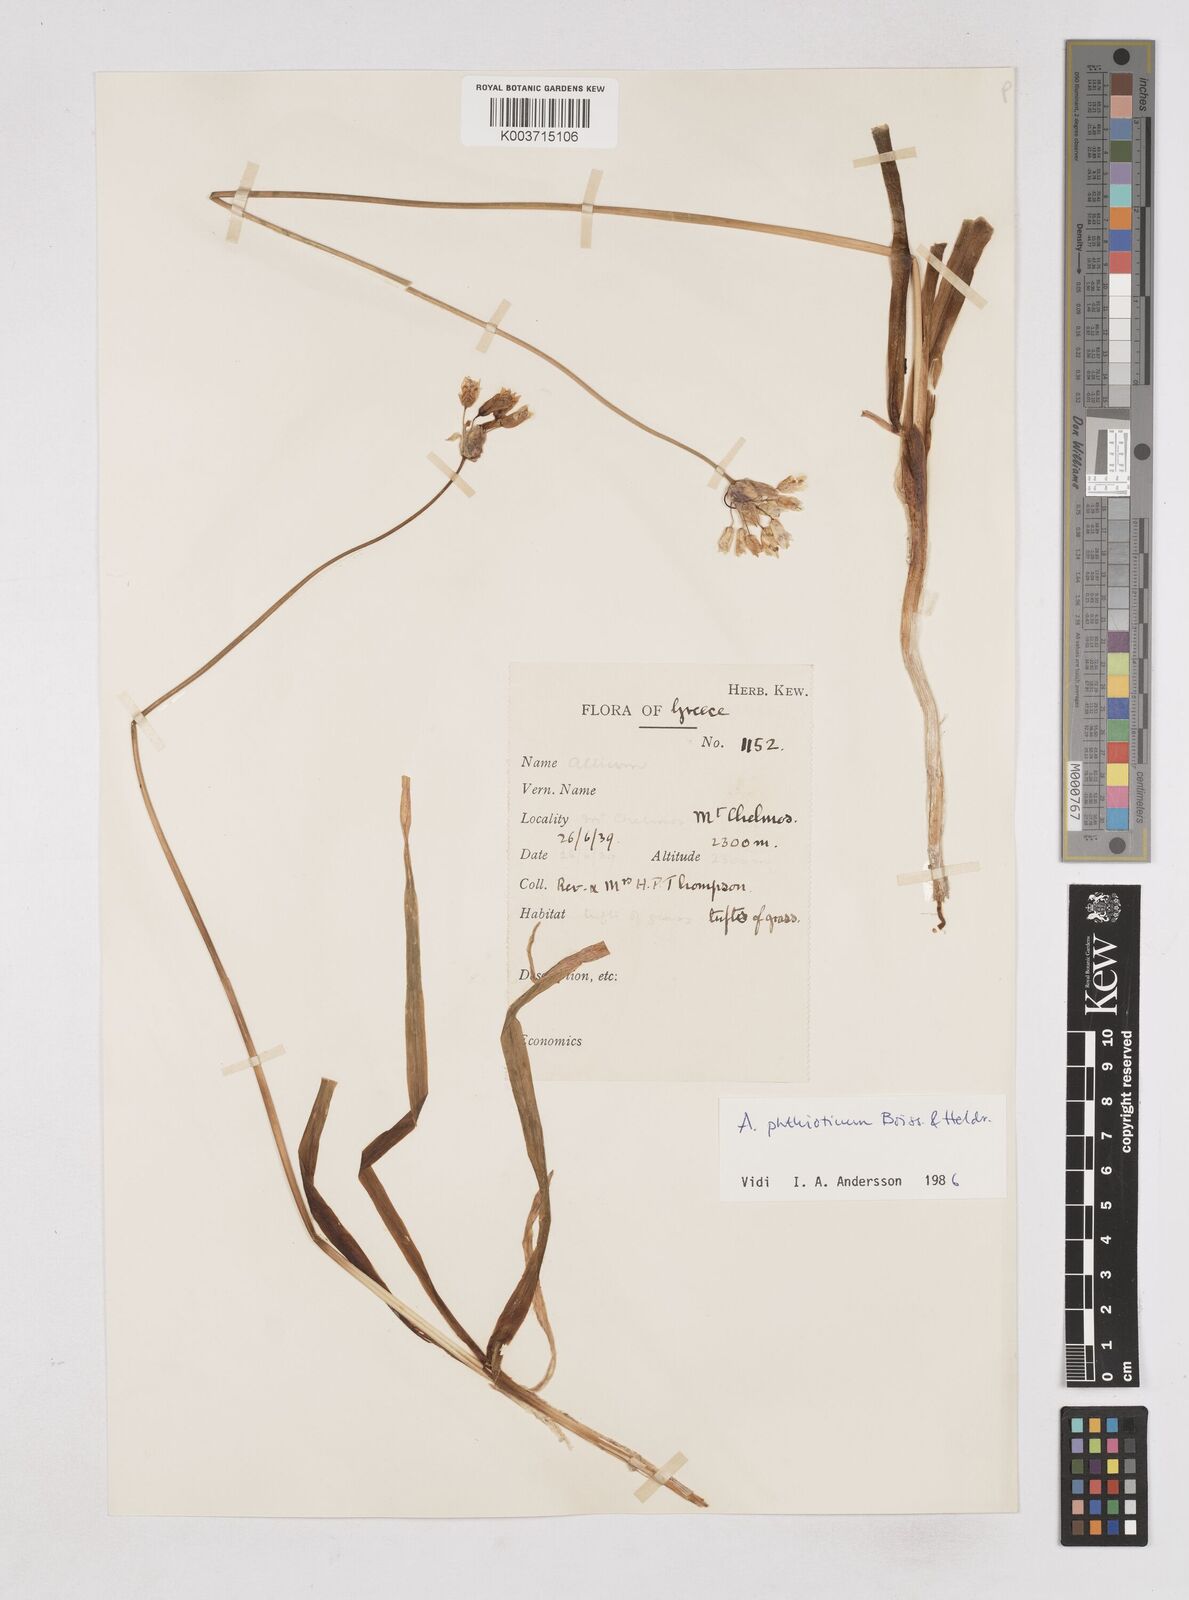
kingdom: Plantae
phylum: Tracheophyta
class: Liliopsida
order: Asparagales
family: Amaryllidaceae
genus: Allium
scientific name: Allium phthioticum
